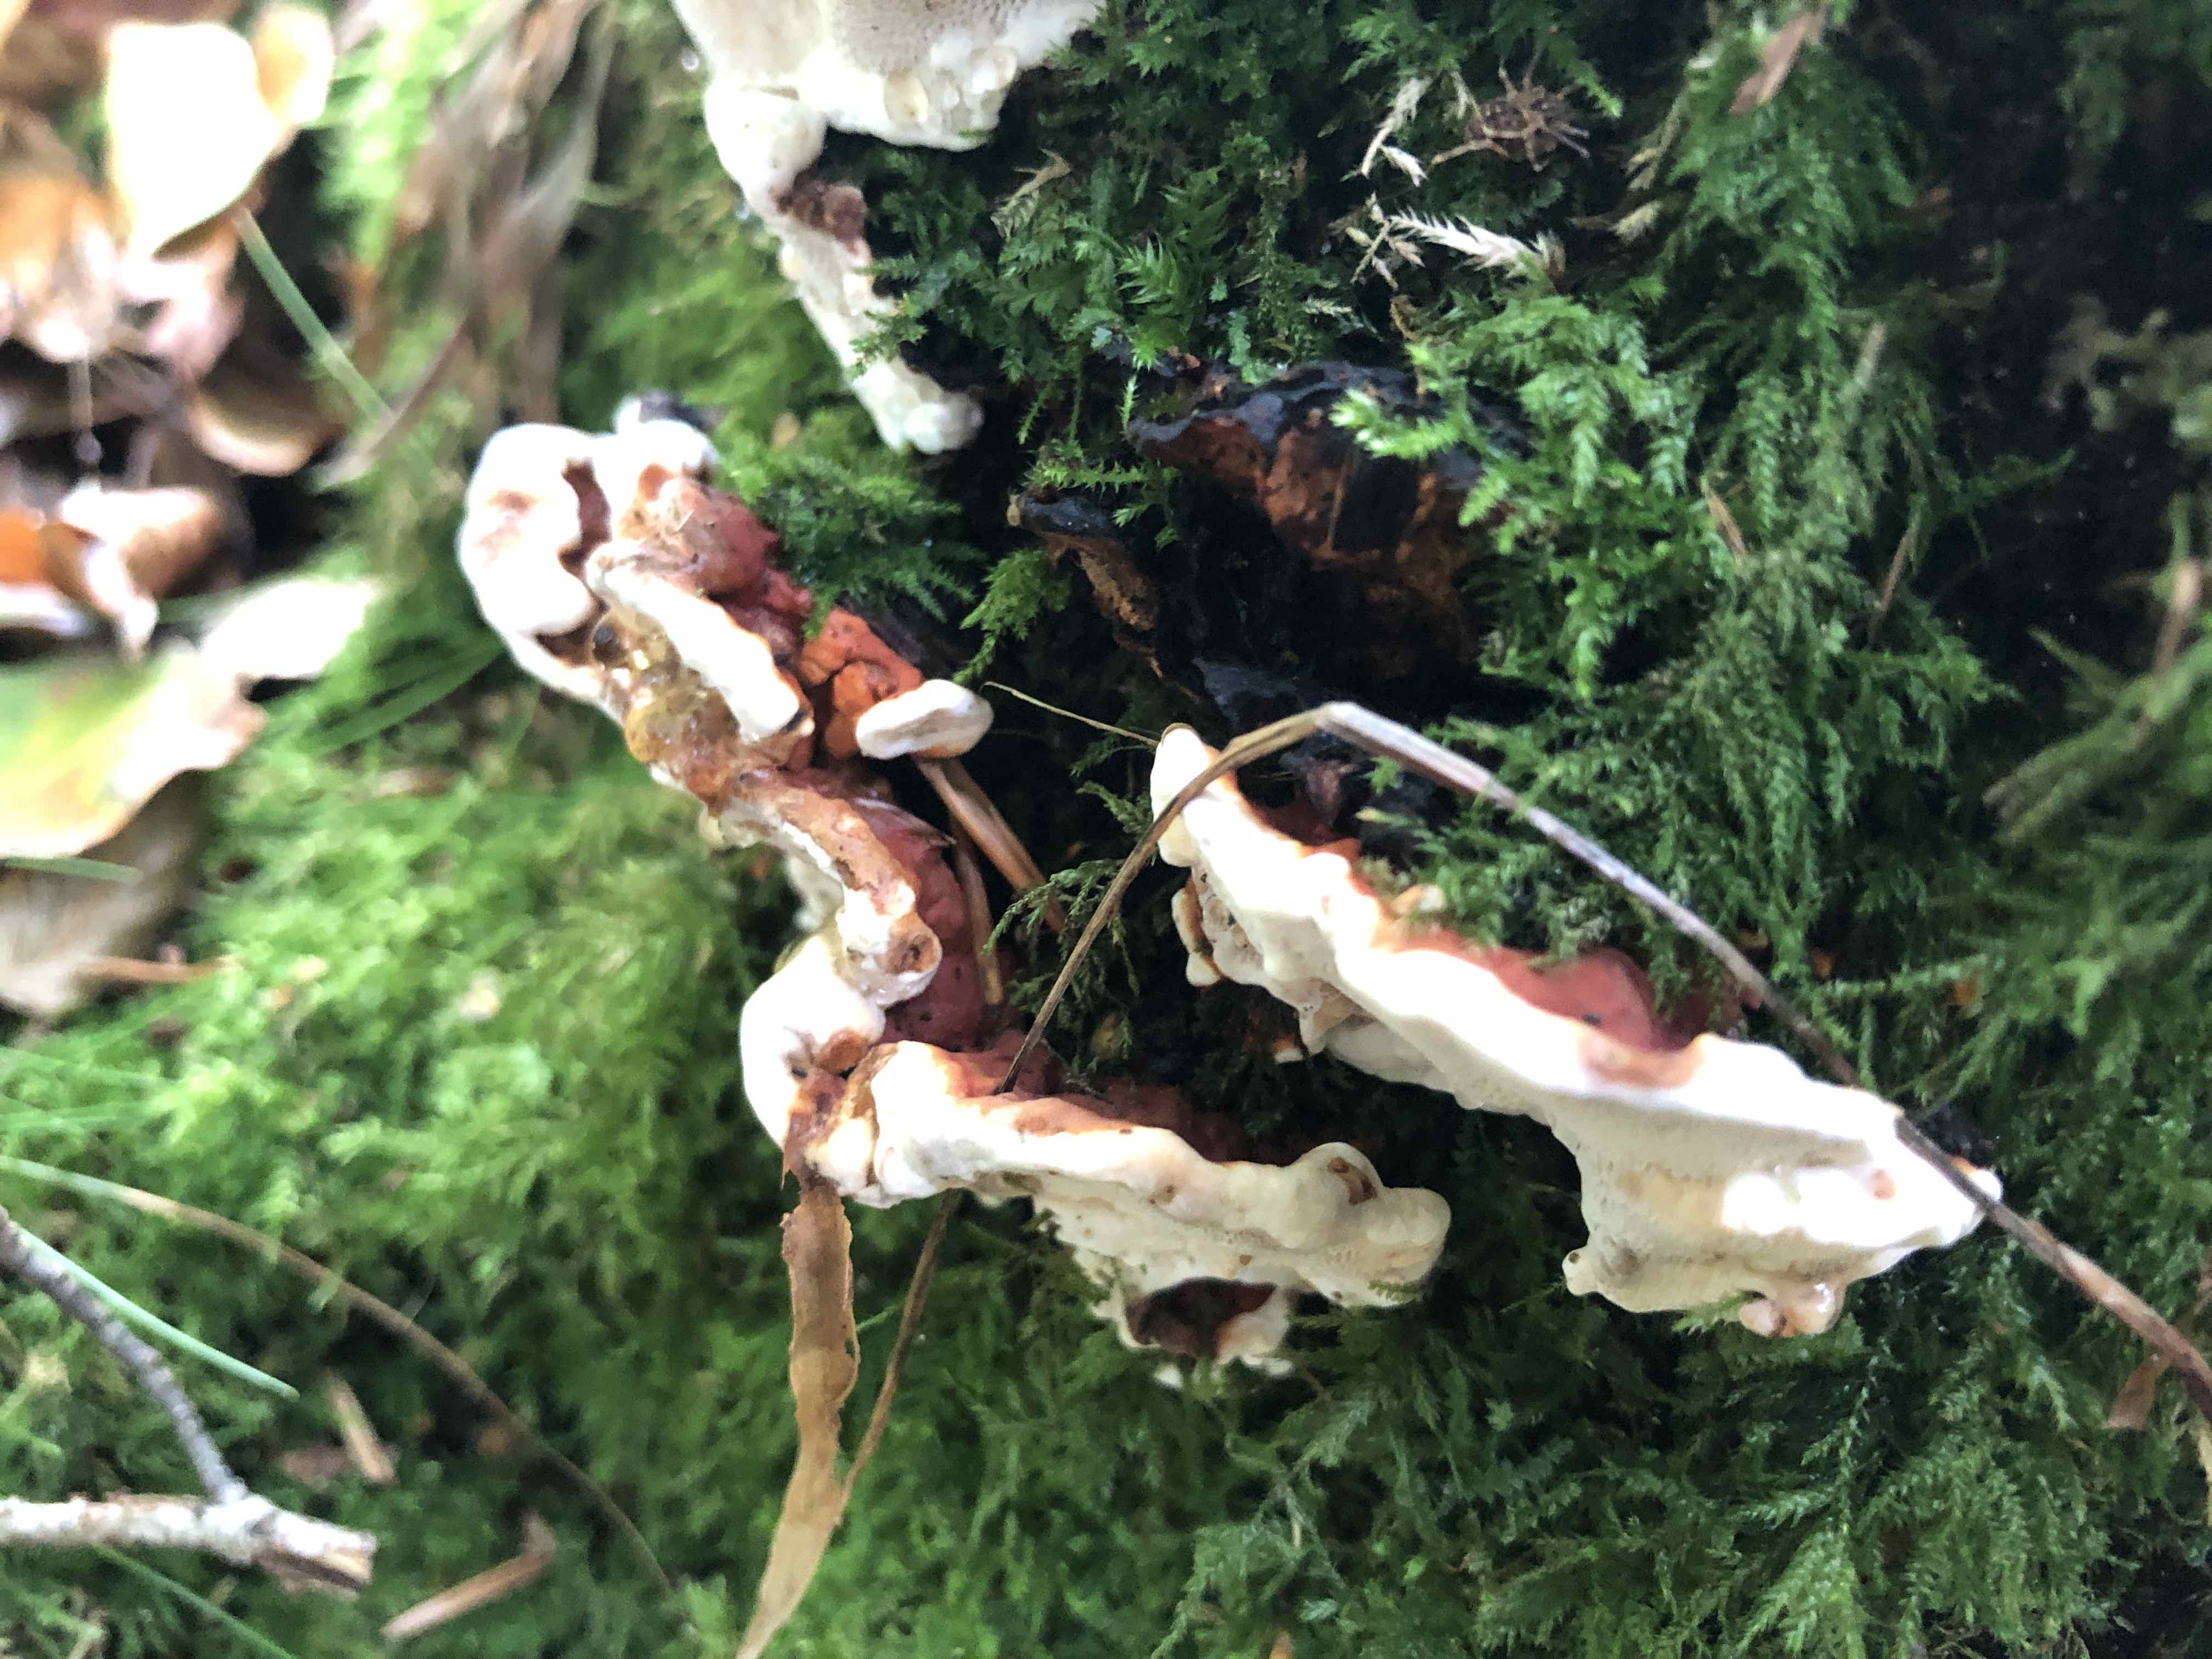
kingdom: Fungi
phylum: Basidiomycota
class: Agaricomycetes
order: Russulales
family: Bondarzewiaceae
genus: Heterobasidion
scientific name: Heterobasidion annosum
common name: almindelig rodfordærver
